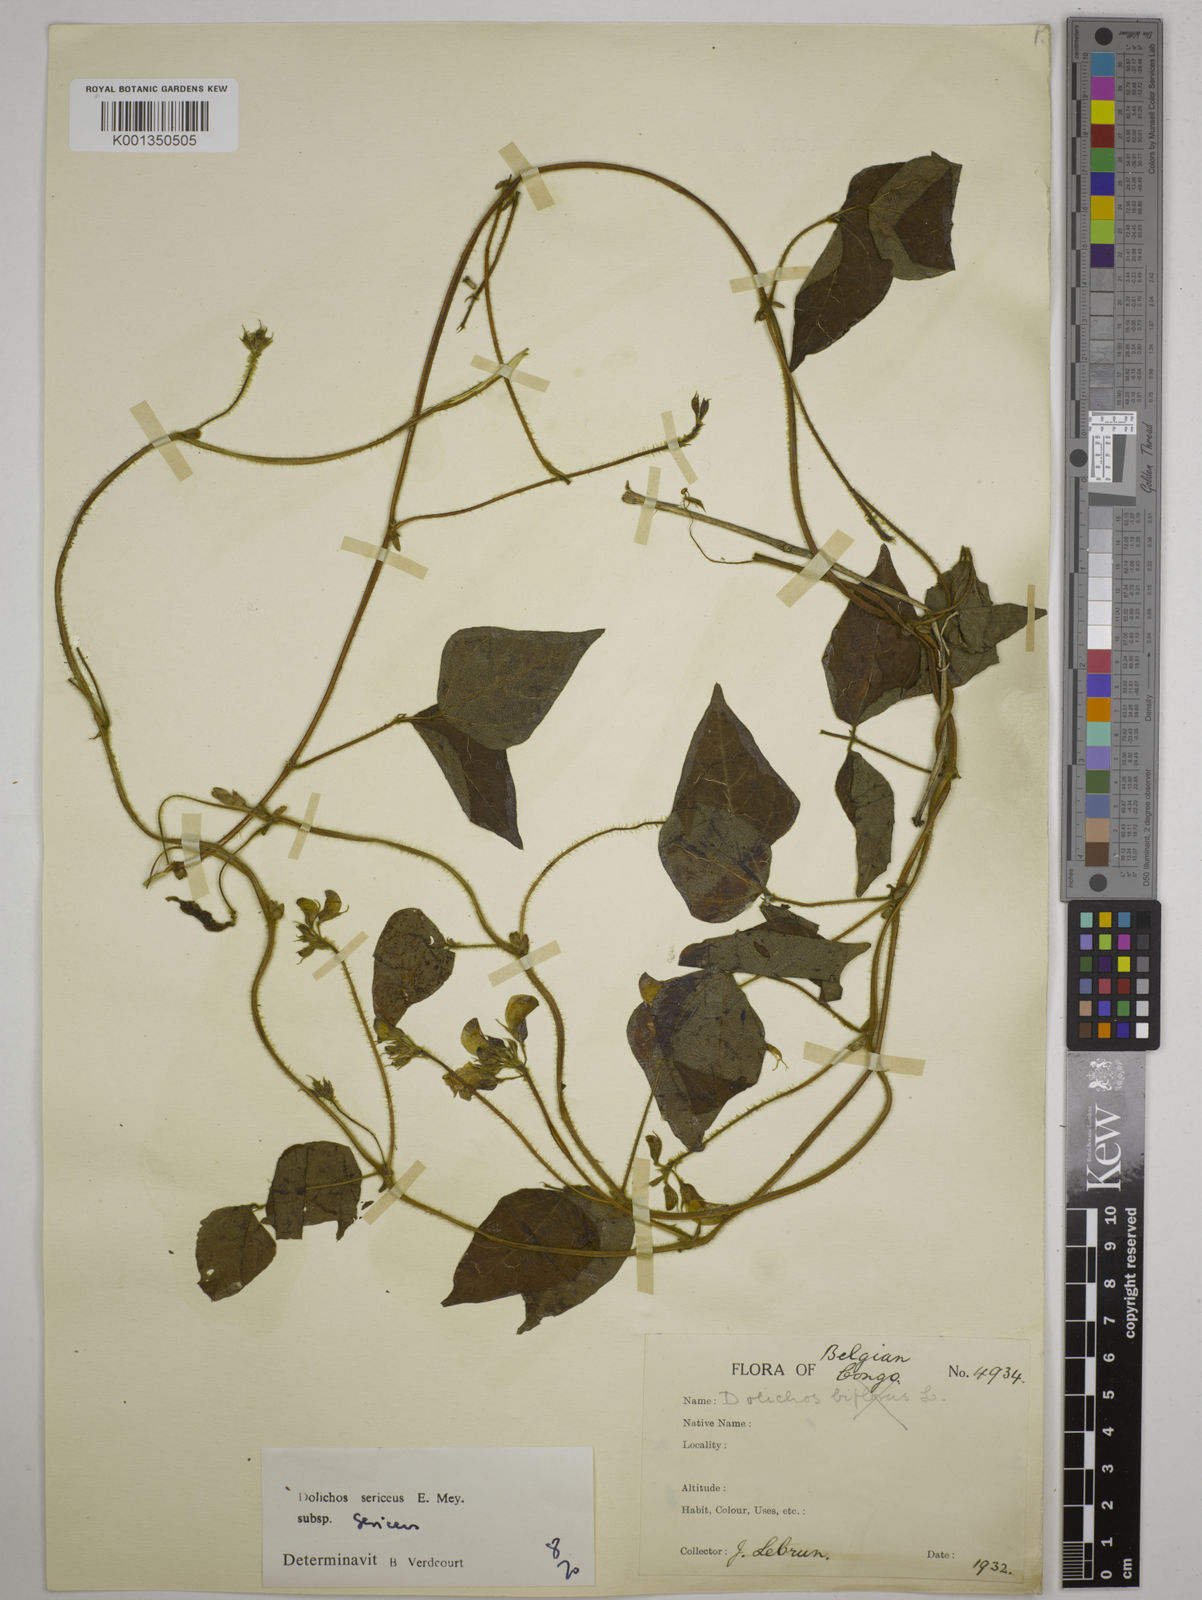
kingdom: Plantae
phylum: Tracheophyta
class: Magnoliopsida
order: Fabales
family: Fabaceae
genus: Dolichos
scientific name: Dolichos sericeus
